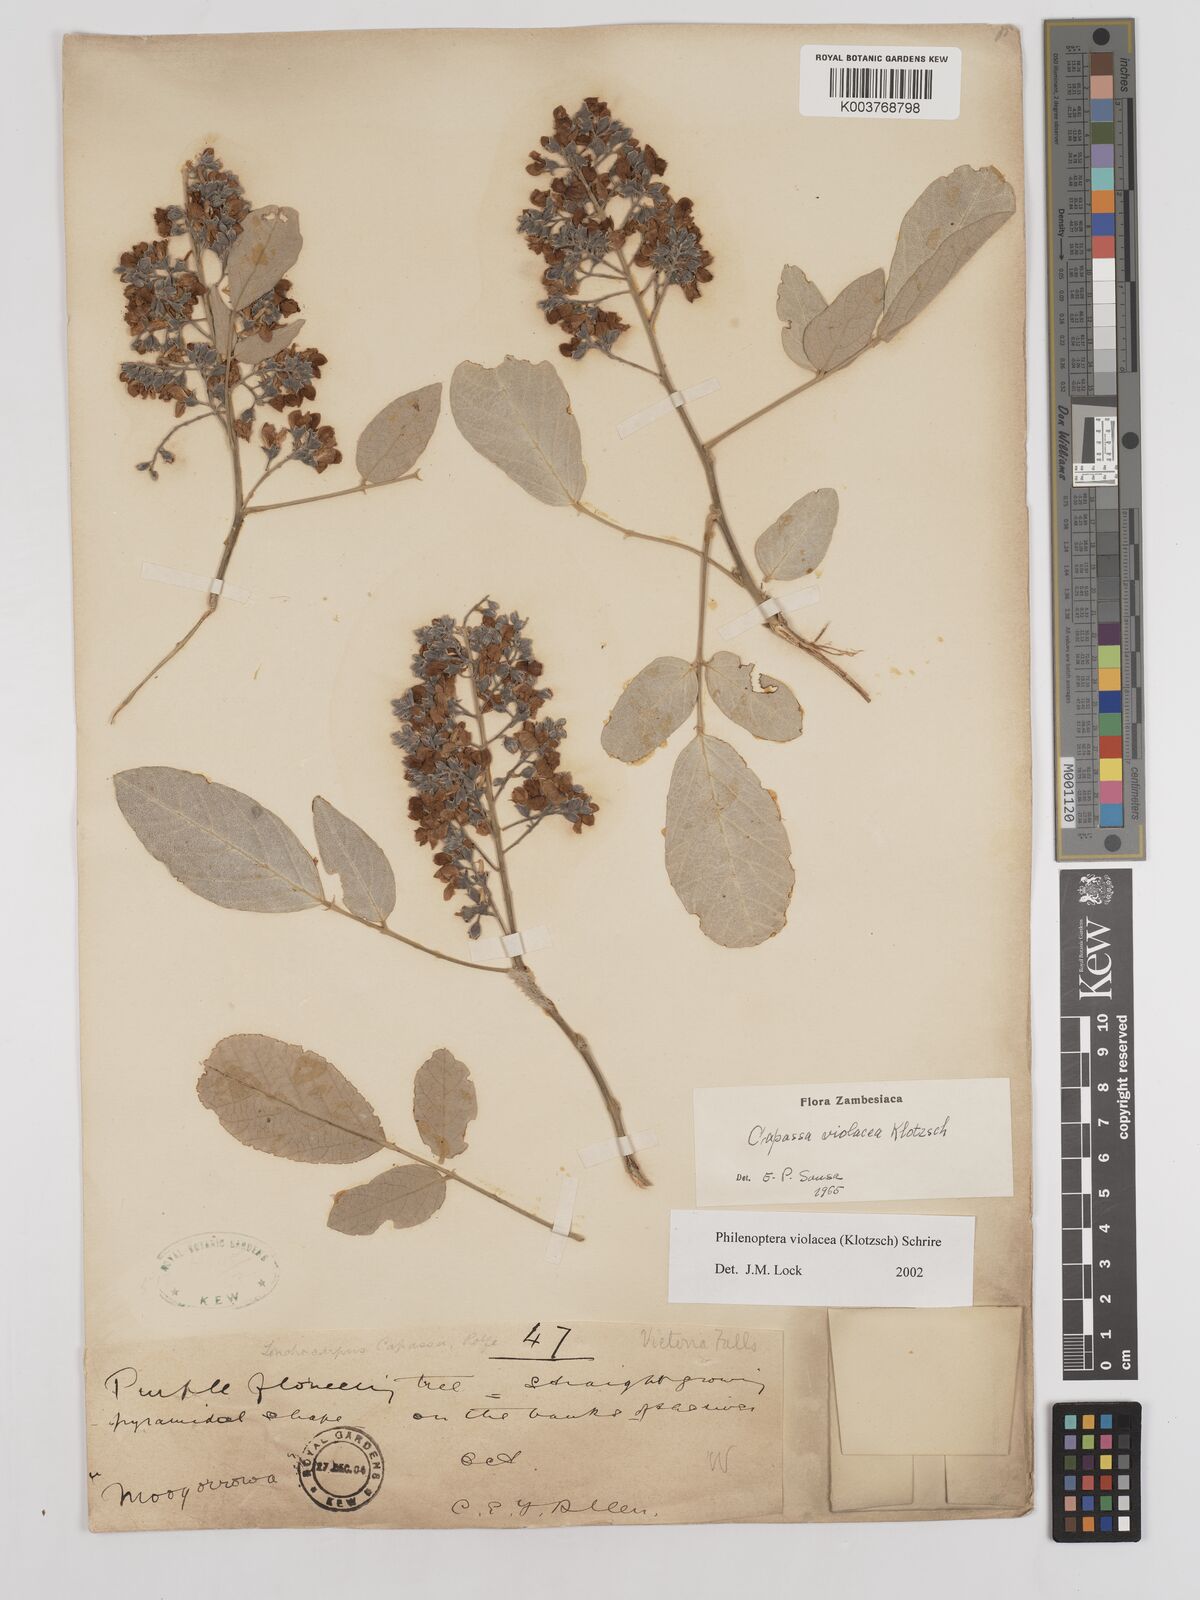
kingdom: Plantae
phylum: Tracheophyta
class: Magnoliopsida
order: Fabales
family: Fabaceae
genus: Philenoptera
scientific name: Philenoptera violacea
